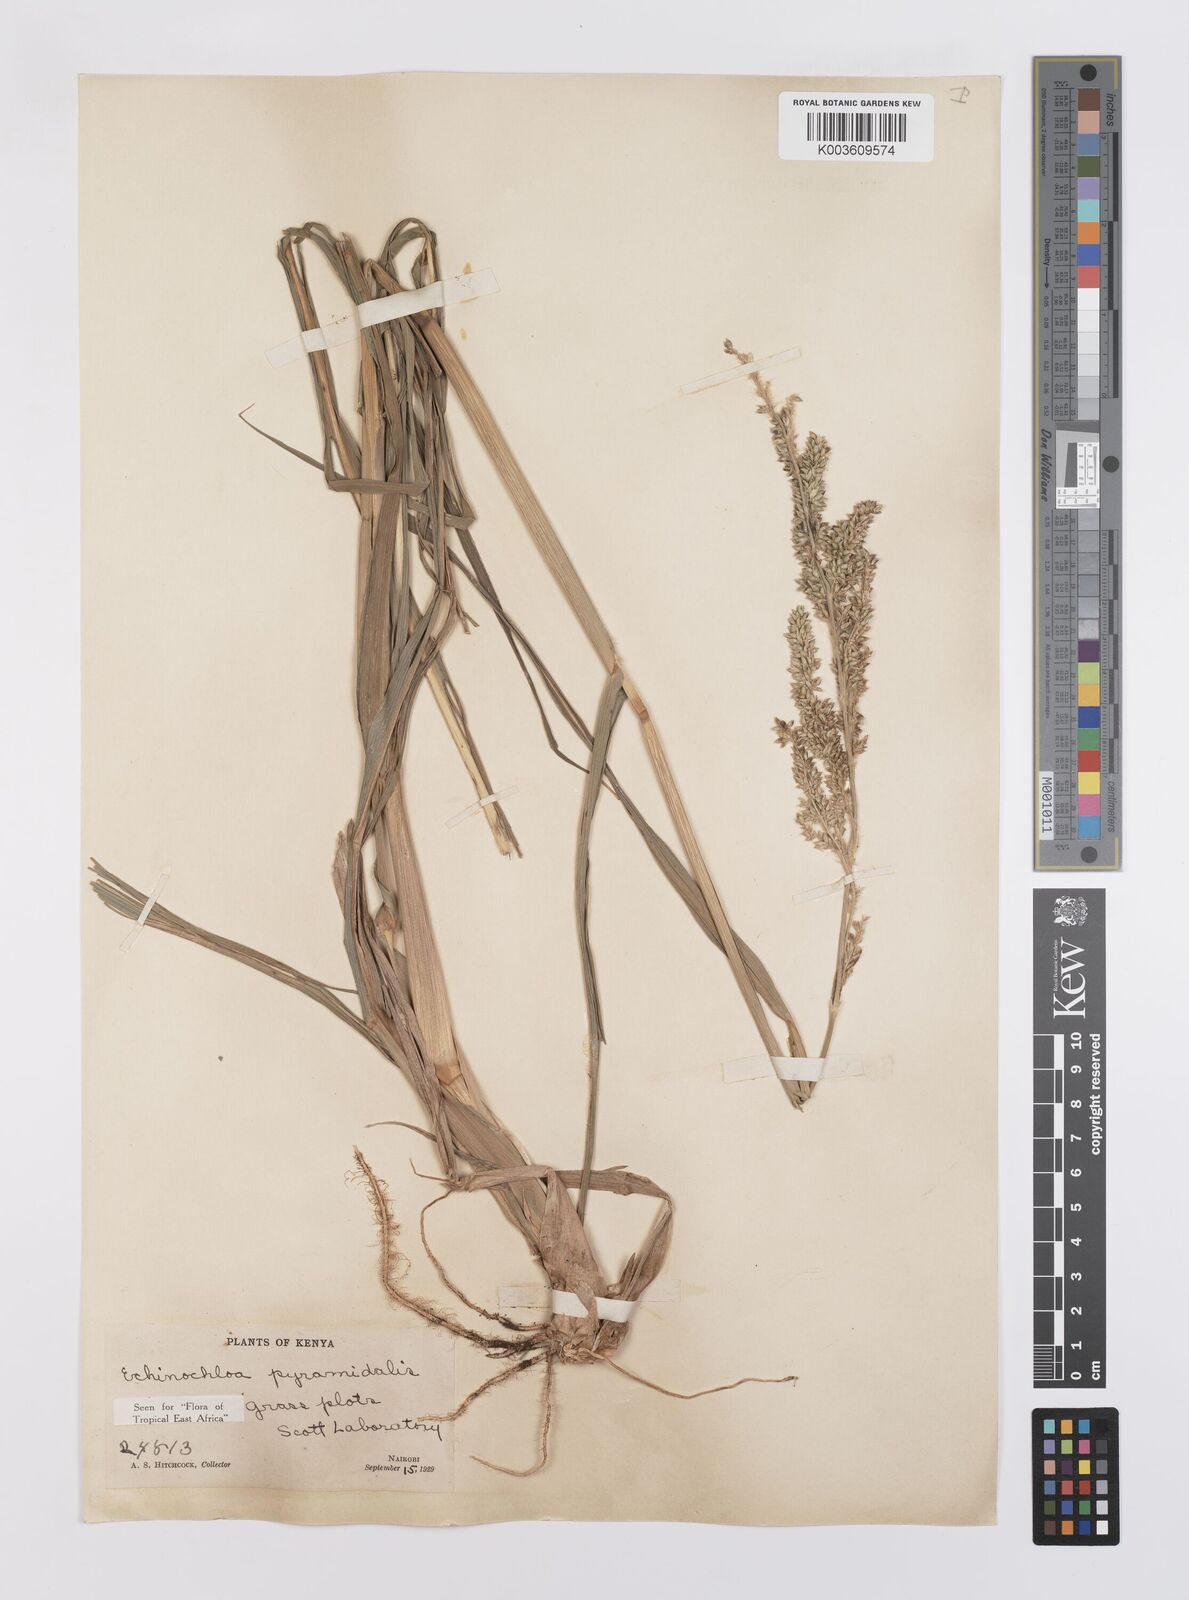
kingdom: Plantae
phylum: Tracheophyta
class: Liliopsida
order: Poales
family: Poaceae
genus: Echinochloa
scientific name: Echinochloa pyramidalis
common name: Antelope grass
